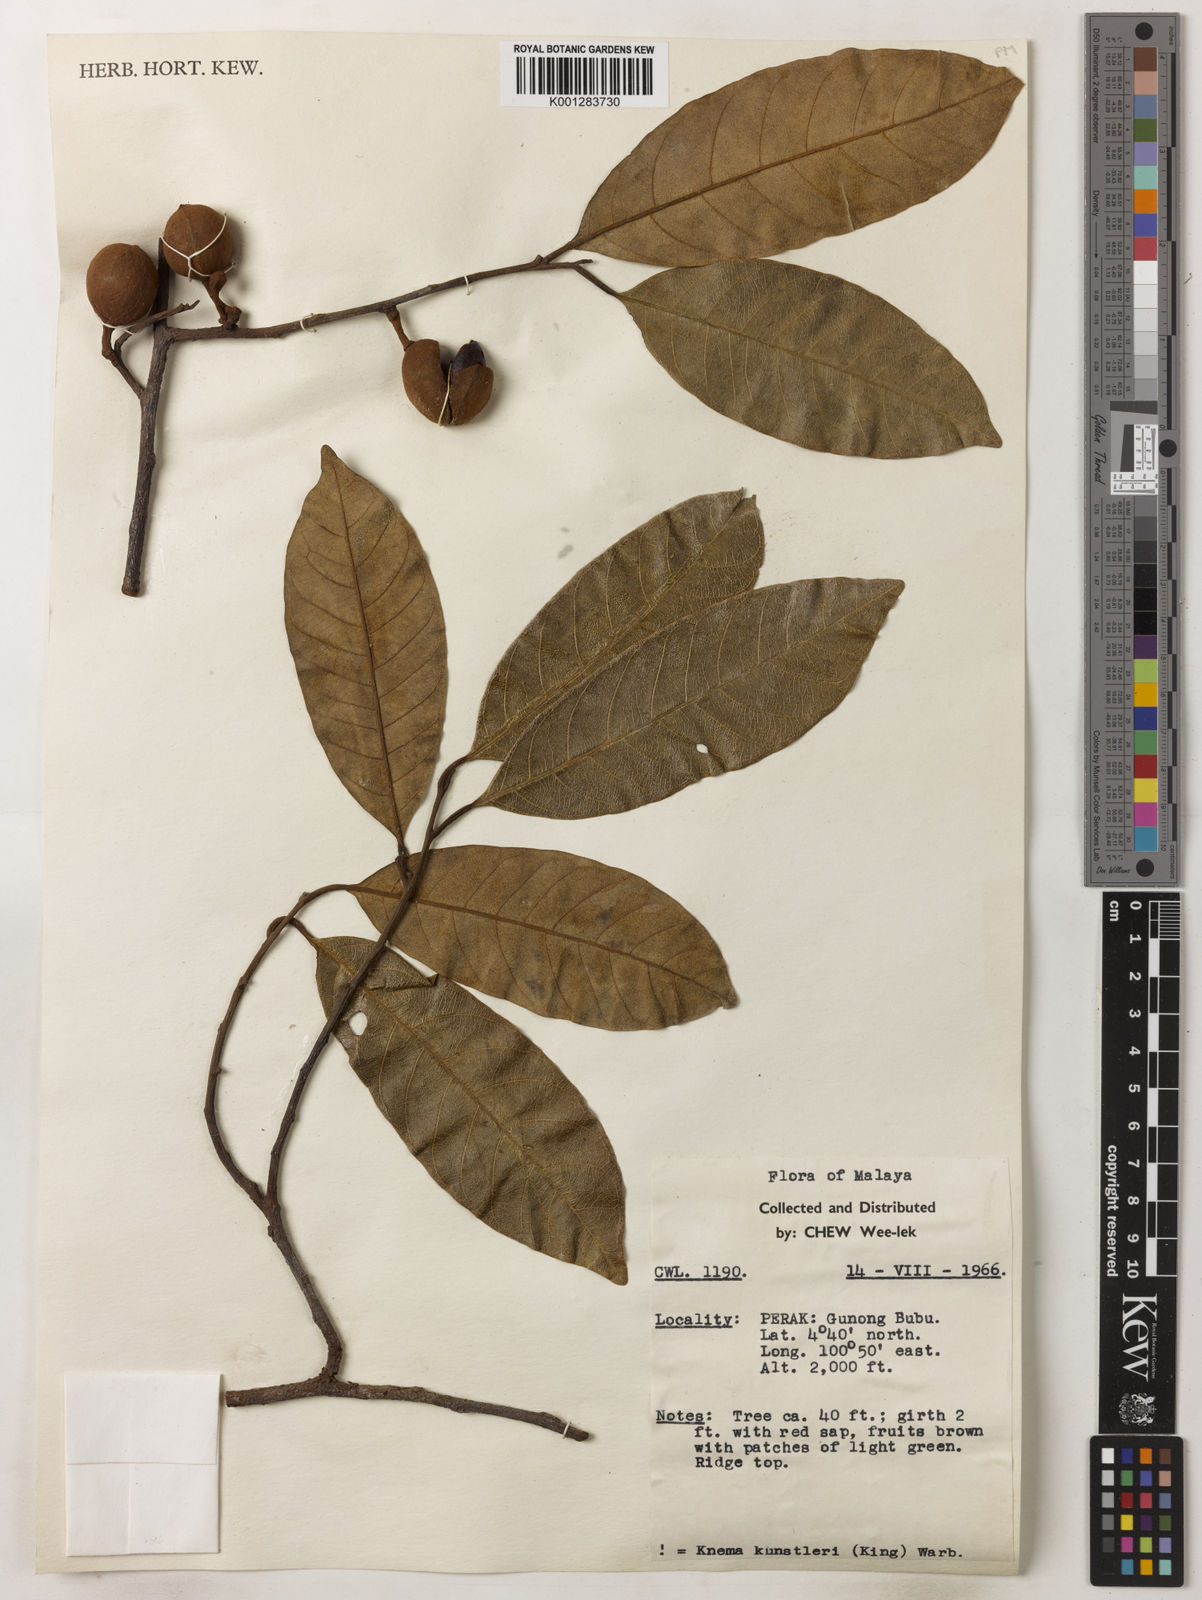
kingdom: Plantae
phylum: Tracheophyta
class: Magnoliopsida
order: Magnoliales
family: Myristicaceae
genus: Knema
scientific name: Knema kunstleri
